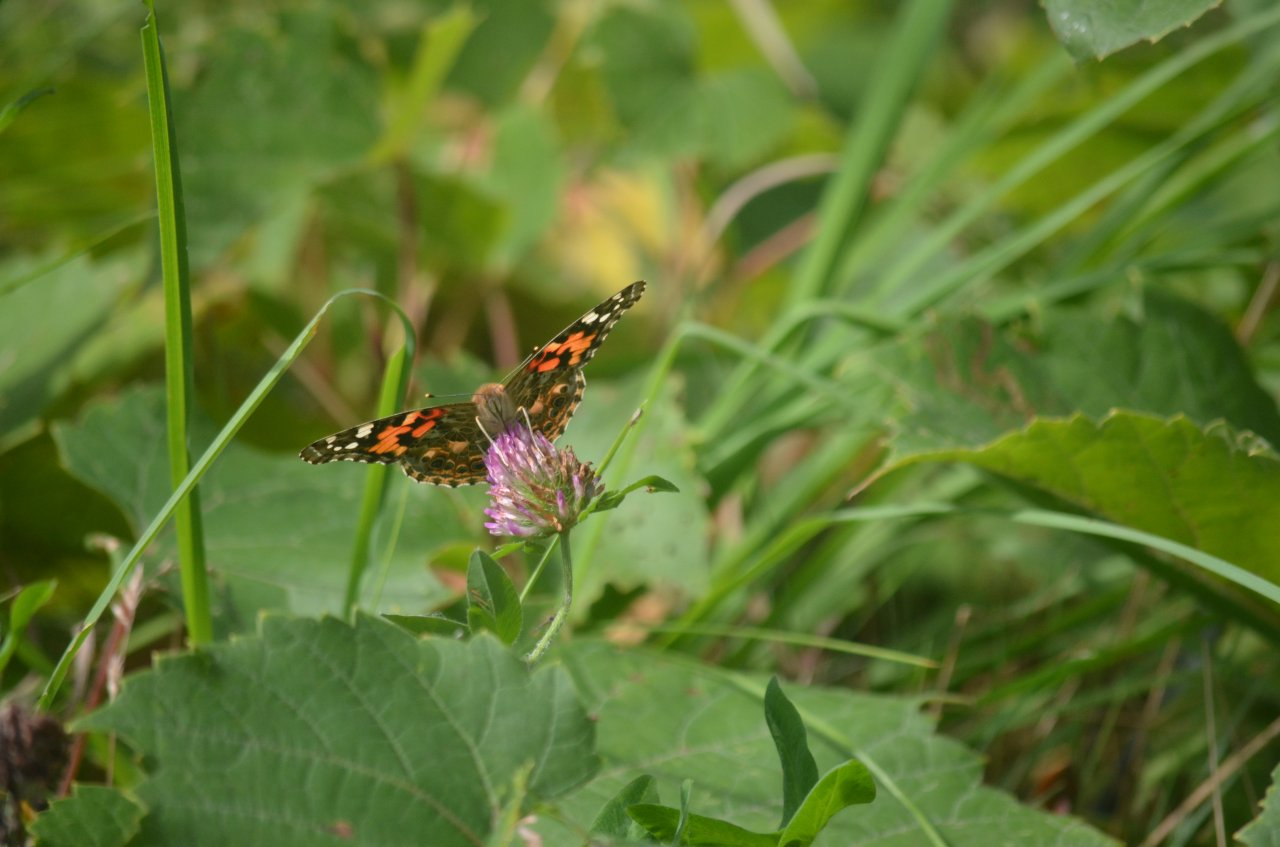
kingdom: Animalia
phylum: Arthropoda
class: Insecta
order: Lepidoptera
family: Nymphalidae
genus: Vanessa
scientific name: Vanessa cardui
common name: Painted Lady
